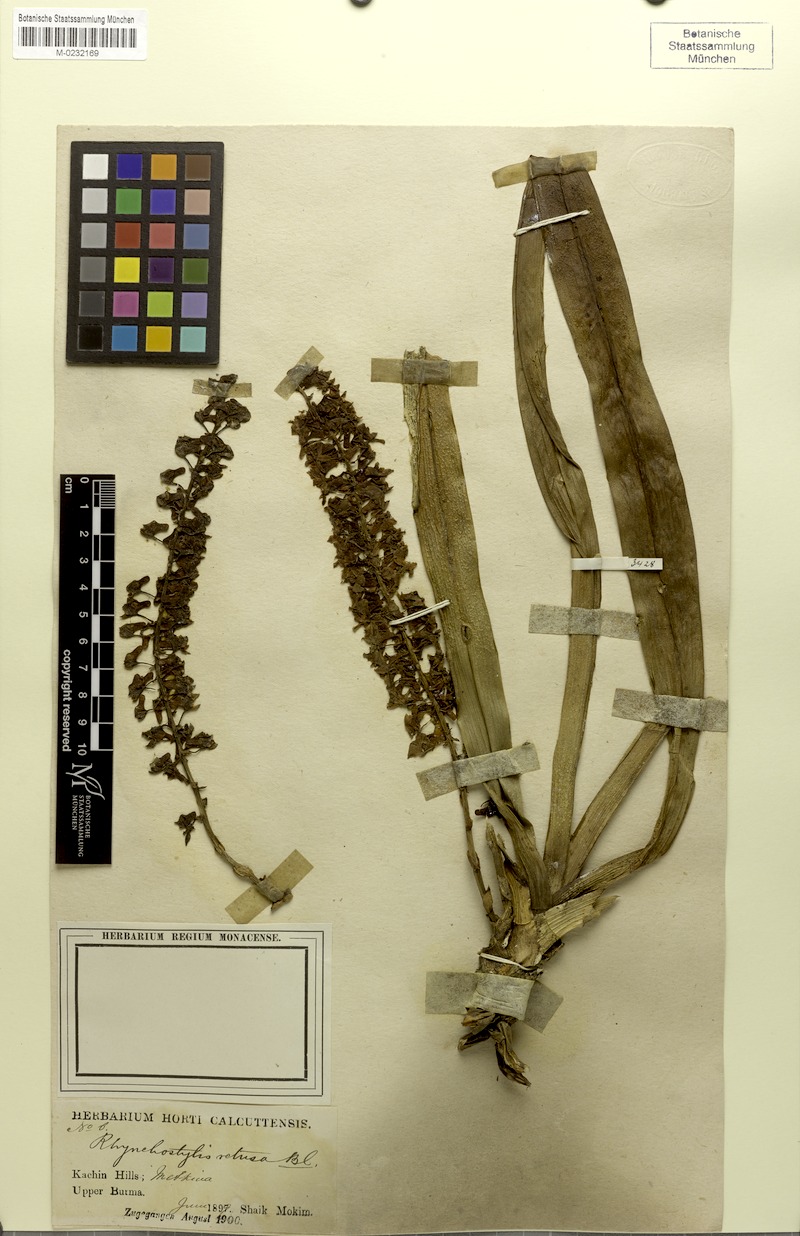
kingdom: Plantae
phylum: Tracheophyta
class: Liliopsida
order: Asparagales
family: Orchidaceae
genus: Rhynchostylis
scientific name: Rhynchostylis retusa
